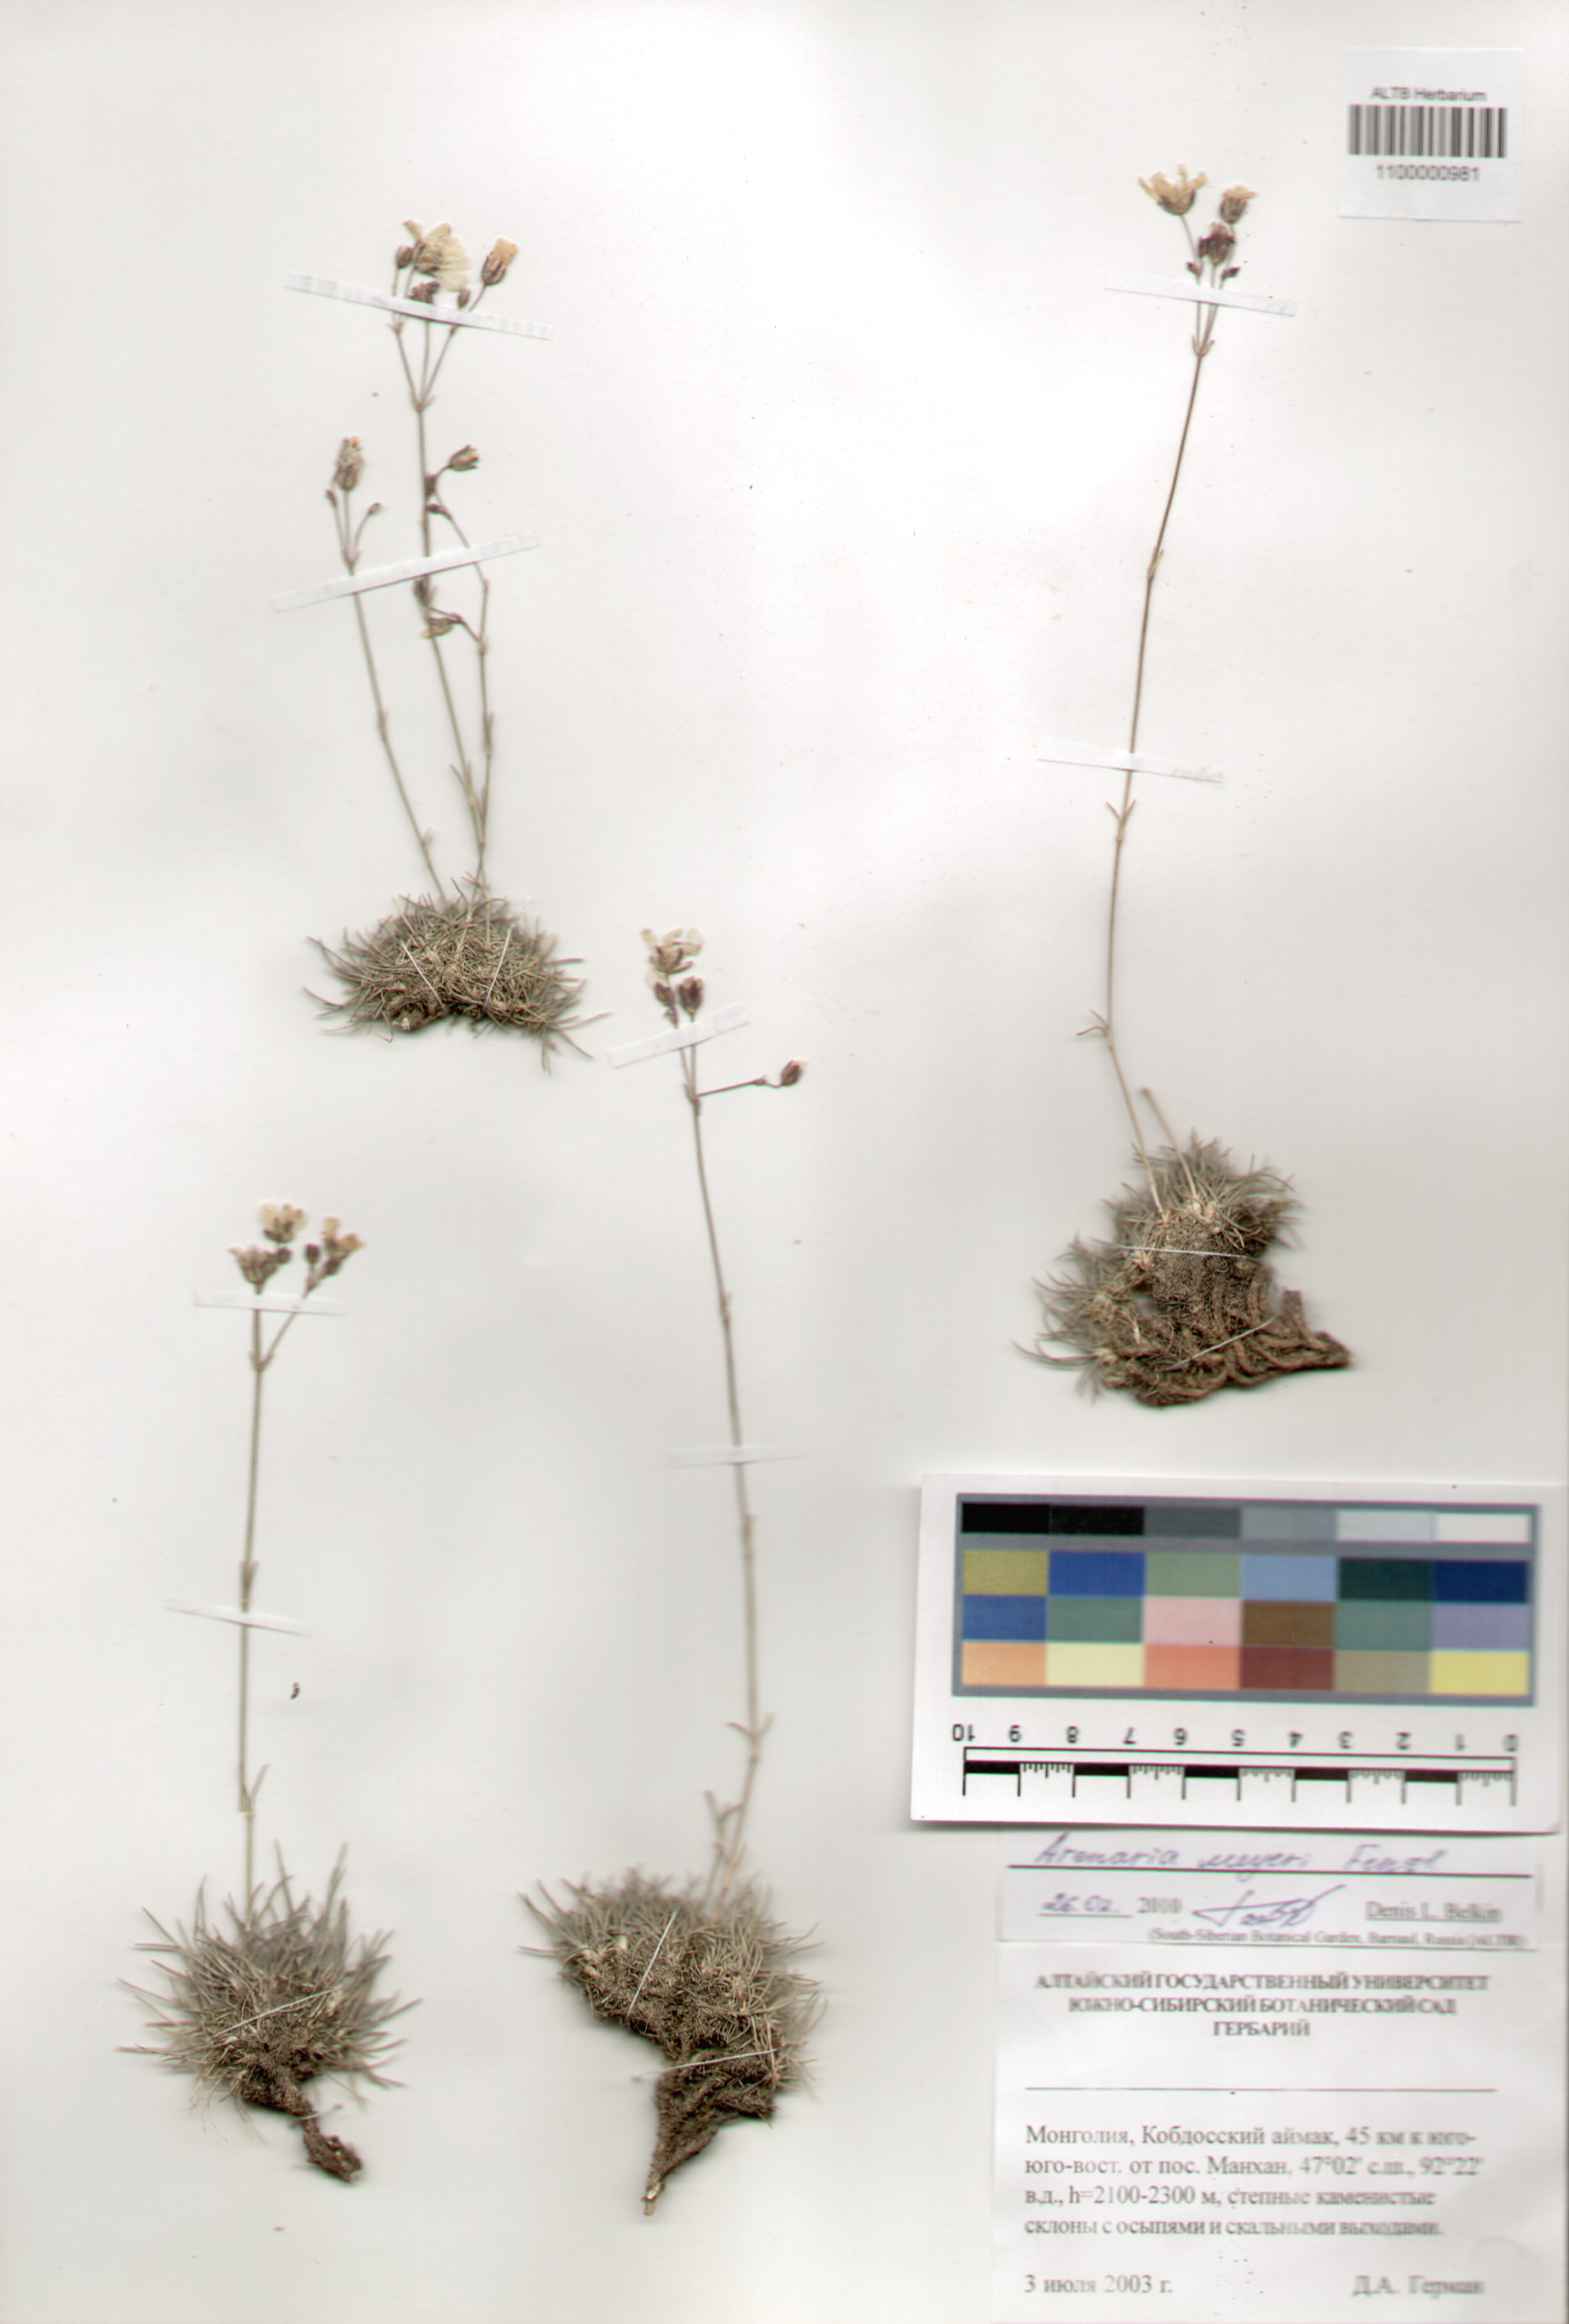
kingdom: Plantae
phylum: Tracheophyta
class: Magnoliopsida
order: Caryophyllales
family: Caryophyllaceae
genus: Eremogone
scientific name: Eremogone meyeri
